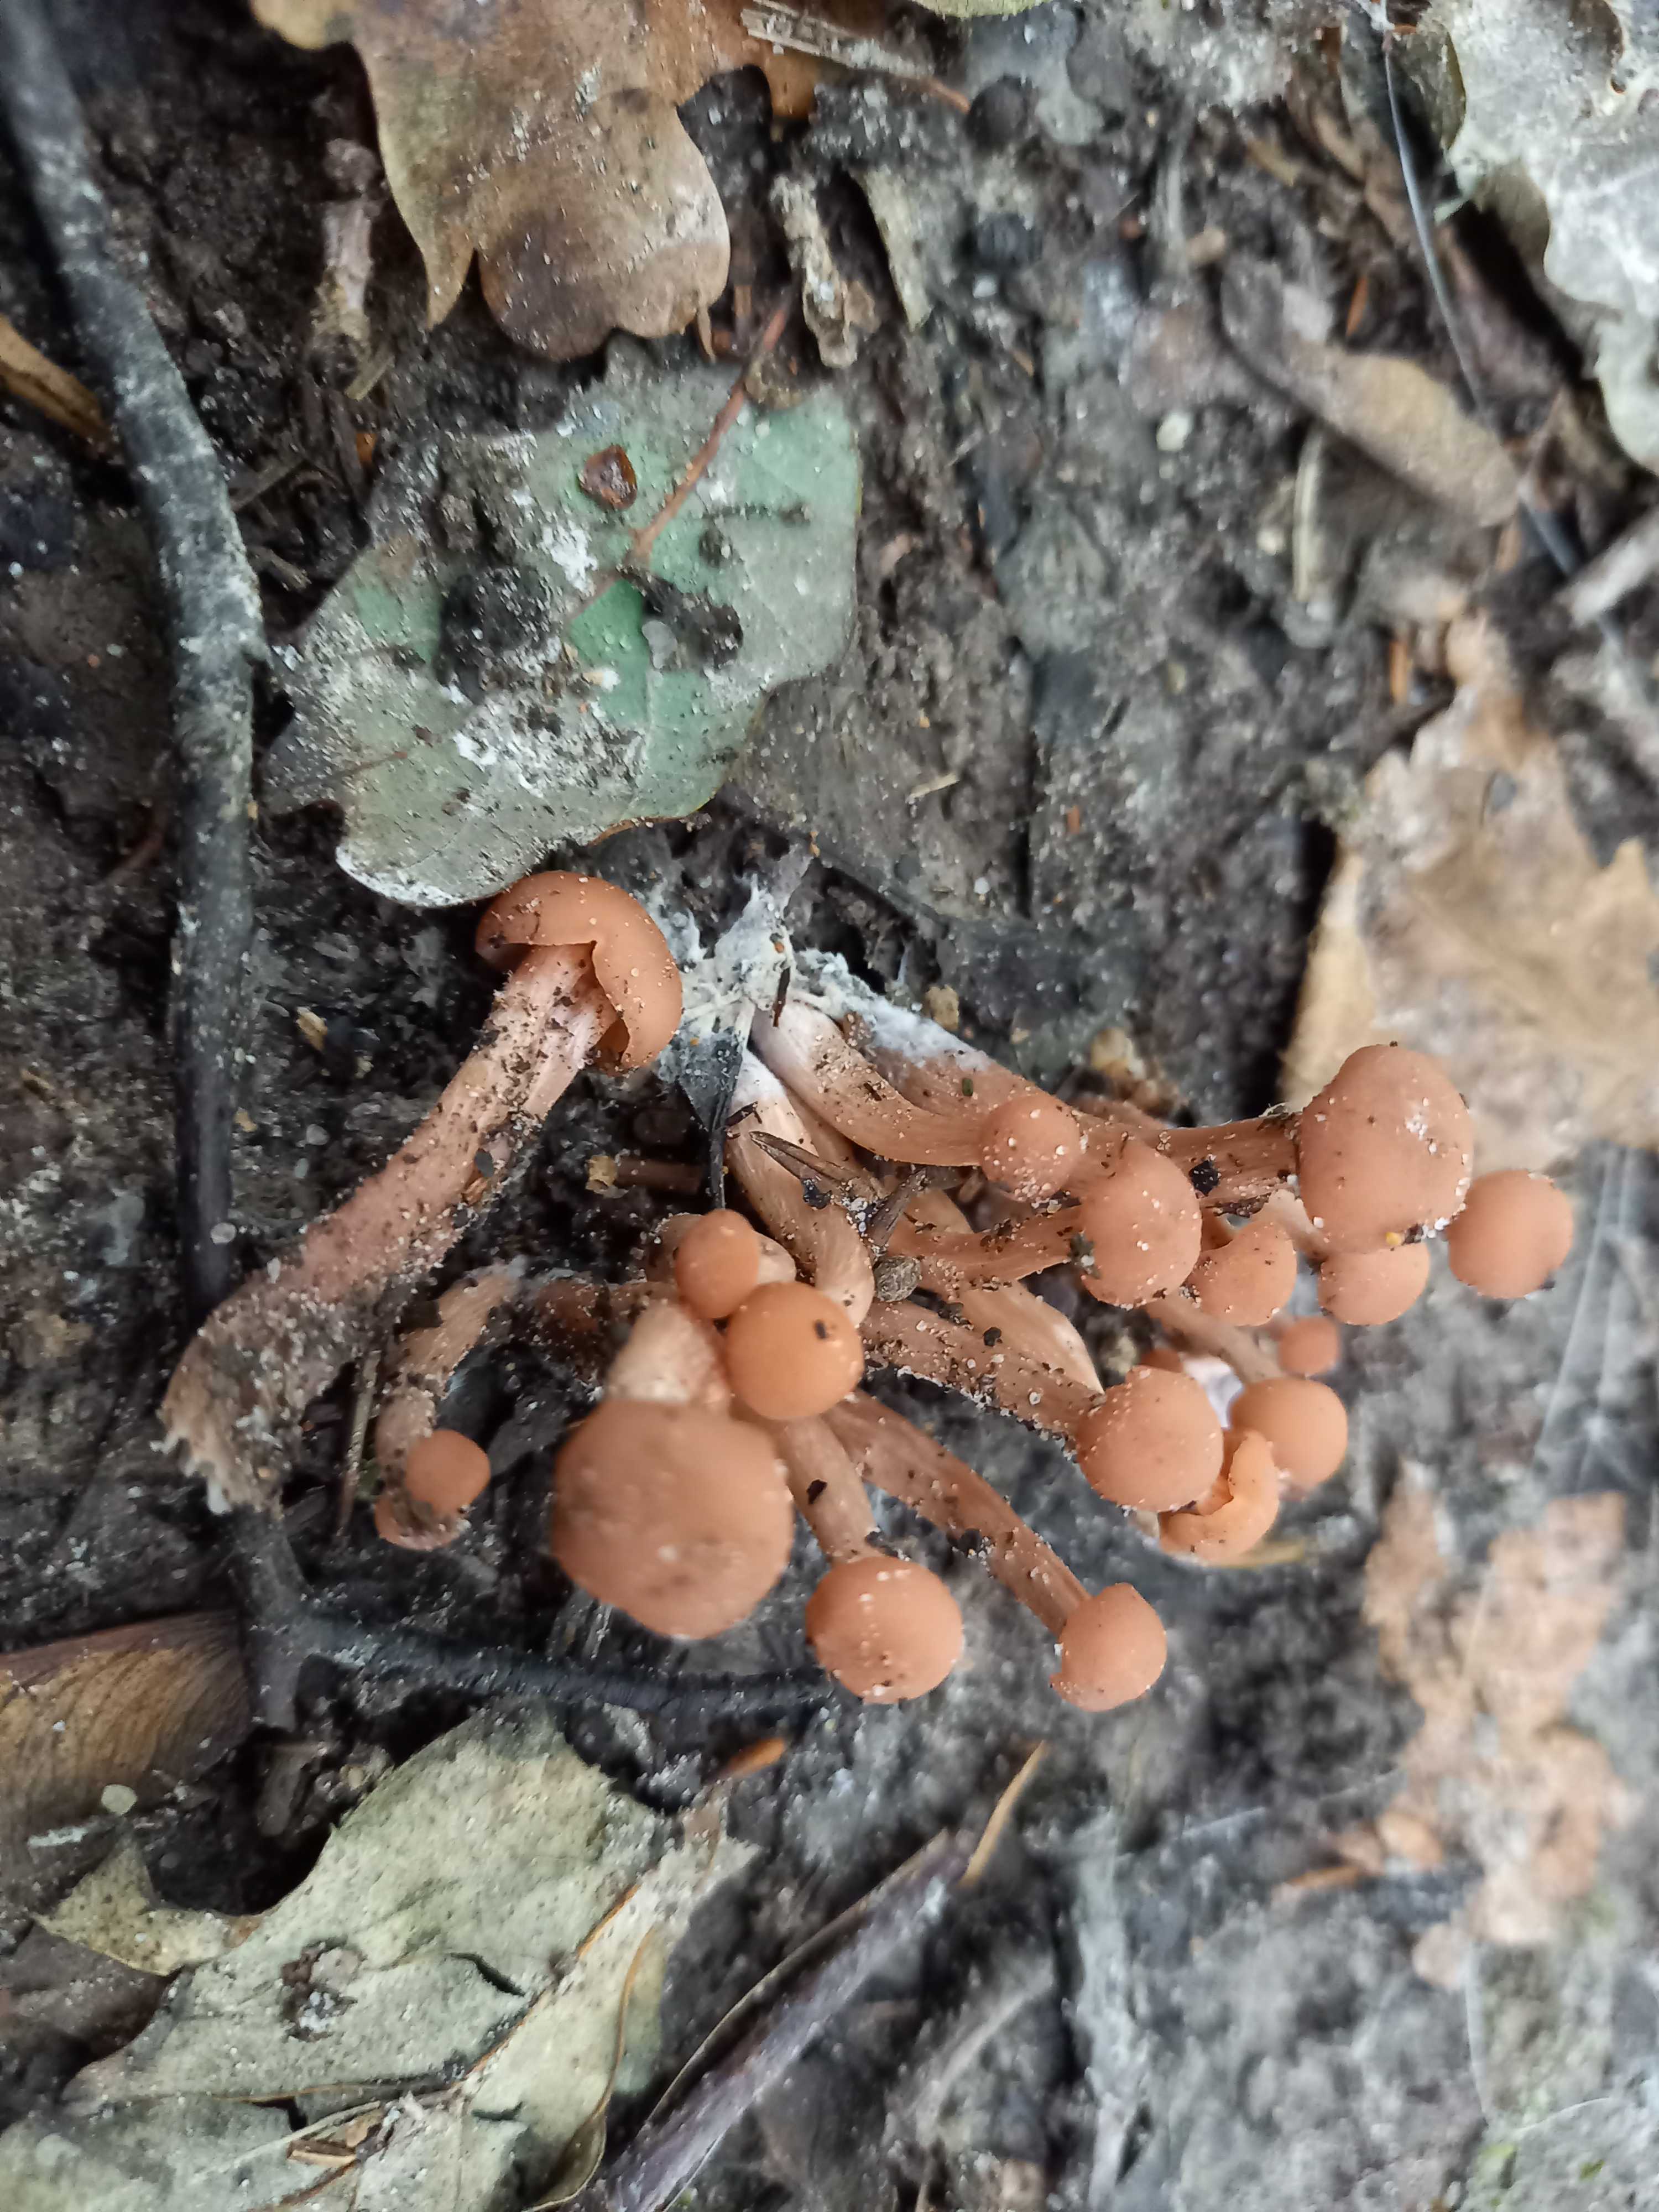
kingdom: Fungi
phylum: Basidiomycota
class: Agaricomycetes
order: Agaricales
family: Hydnangiaceae
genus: Laccaria
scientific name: Laccaria laccata
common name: rød ametysthat
